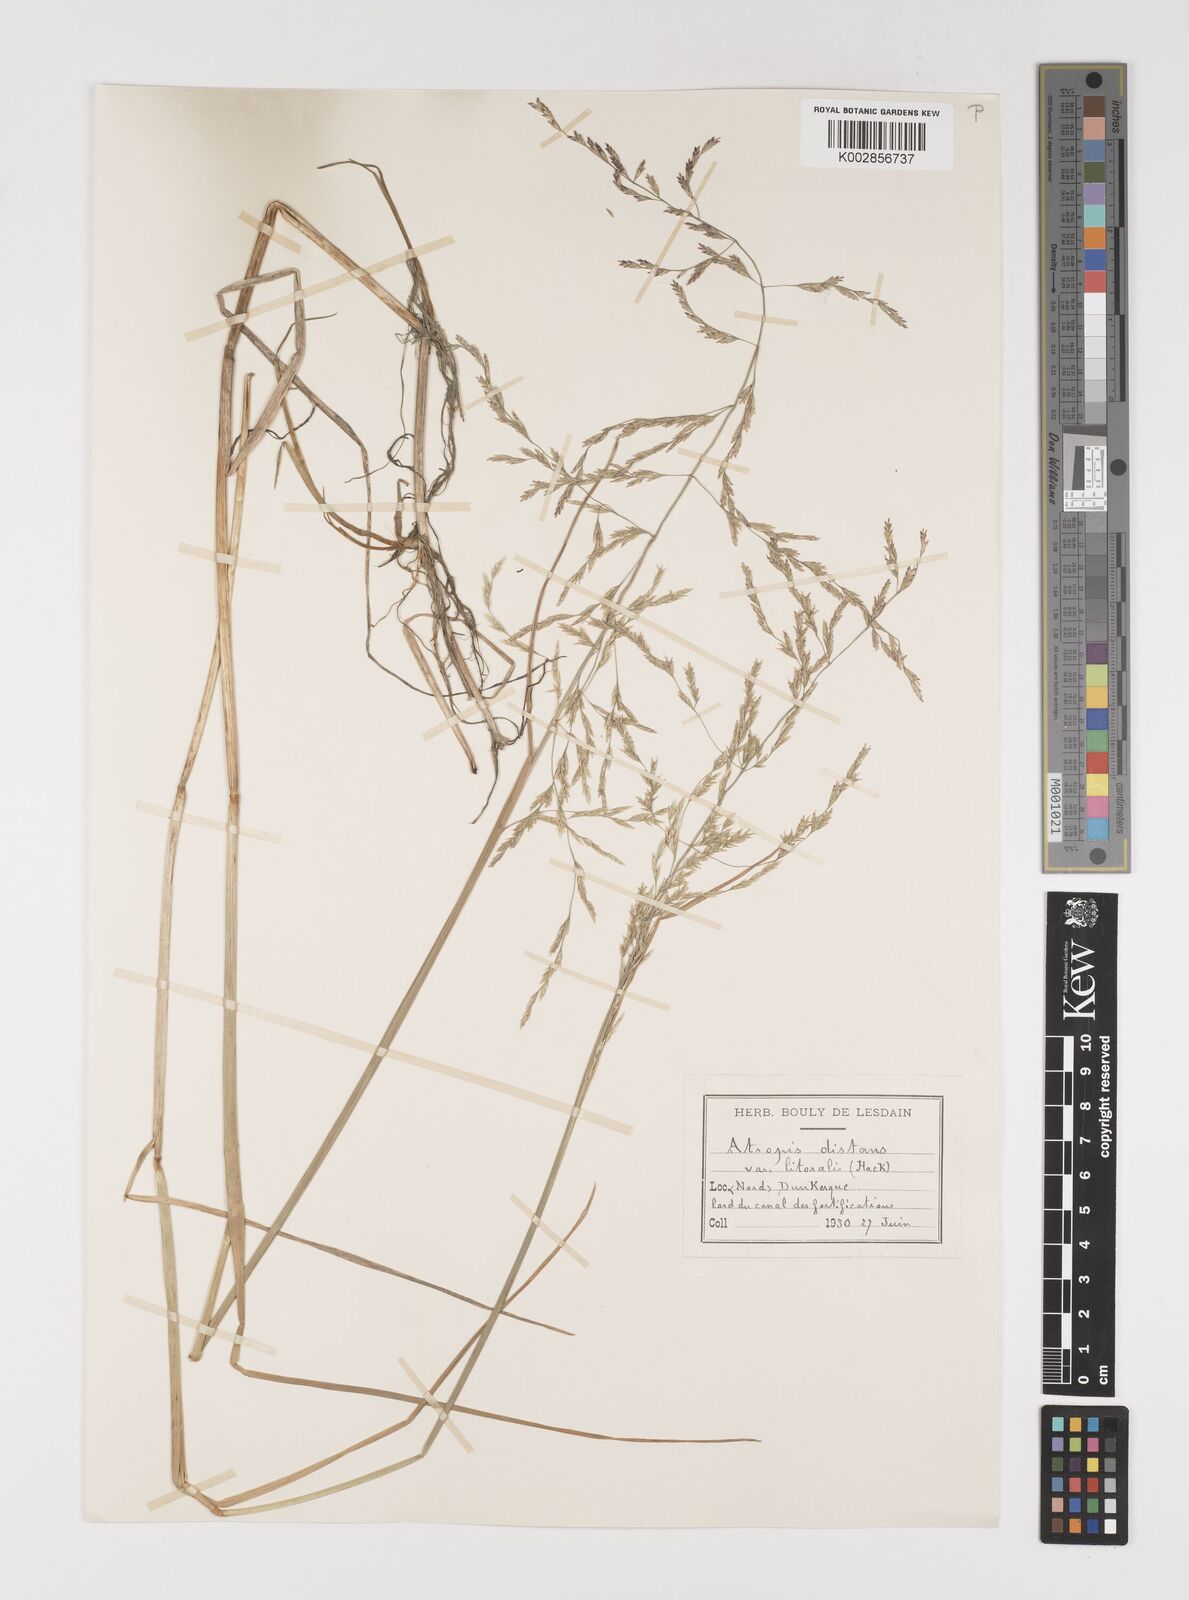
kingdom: Plantae
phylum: Tracheophyta
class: Liliopsida
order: Poales
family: Poaceae
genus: Puccinellia
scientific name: Puccinellia
